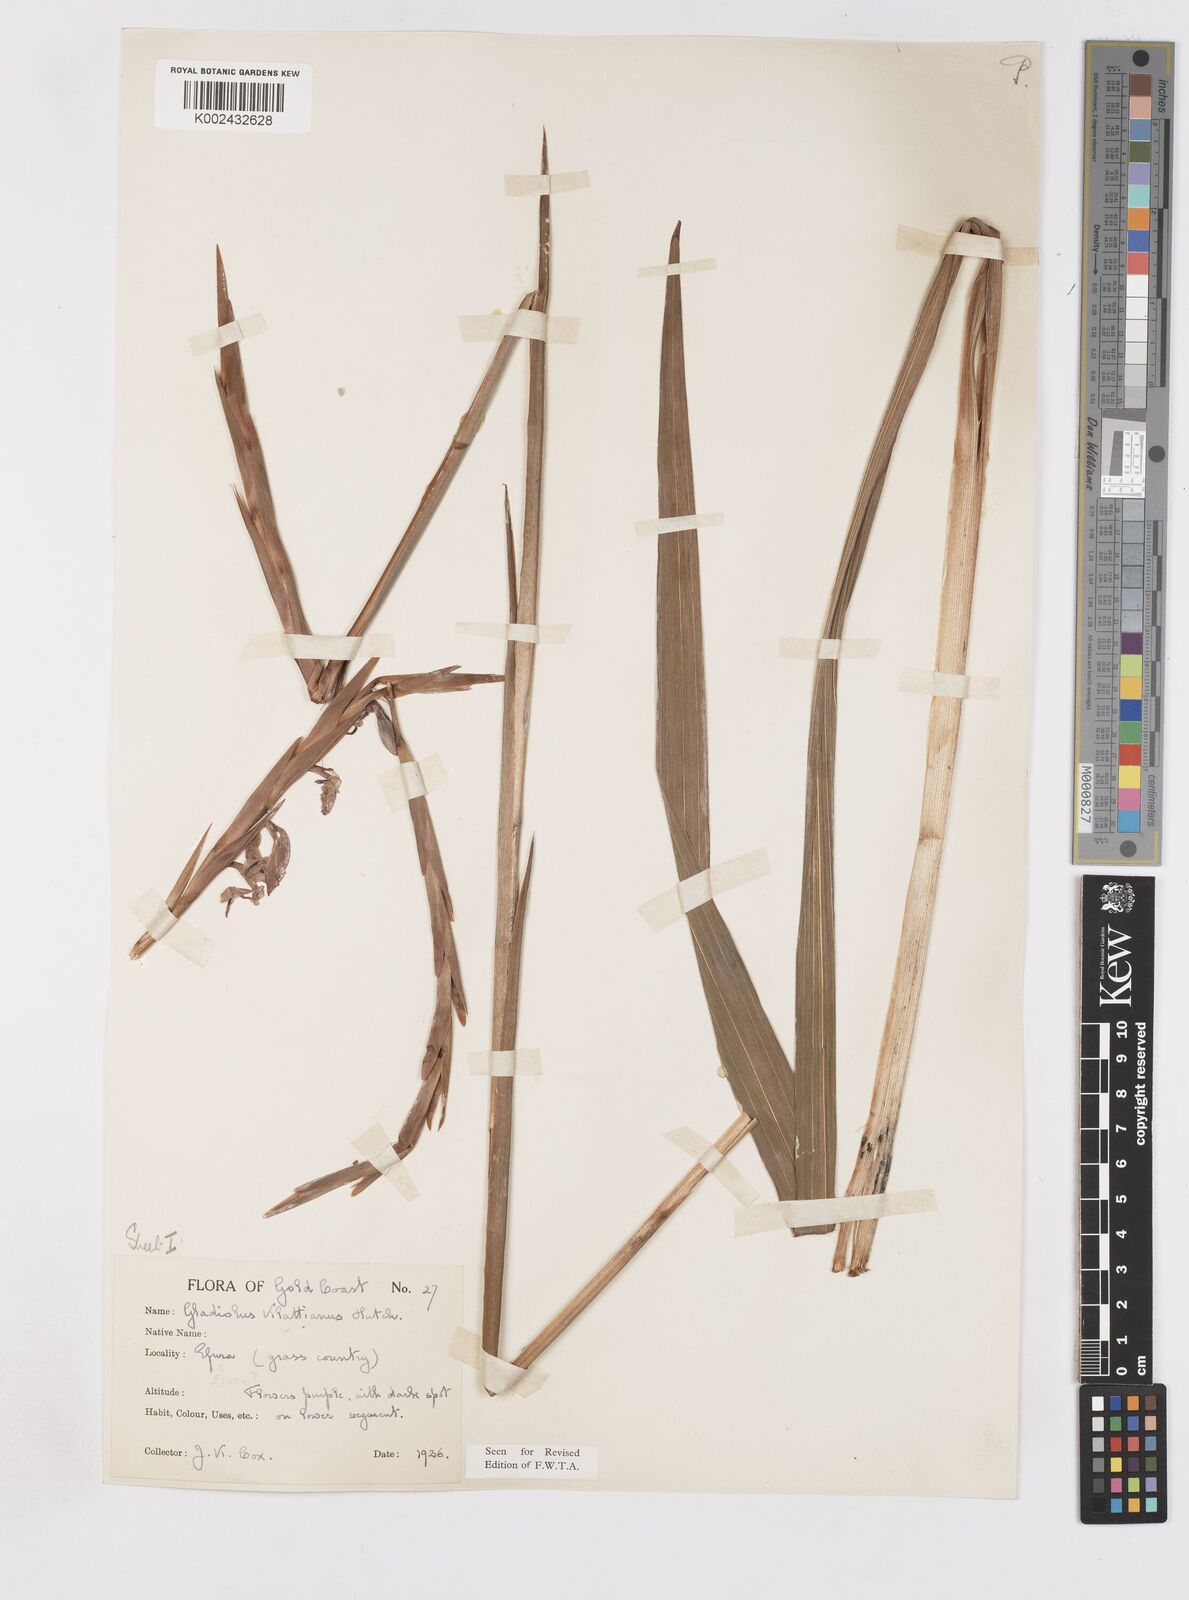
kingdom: Plantae
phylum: Tracheophyta
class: Liliopsida
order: Asparagales
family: Iridaceae
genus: Gladiolus
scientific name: Gladiolus gregarius
